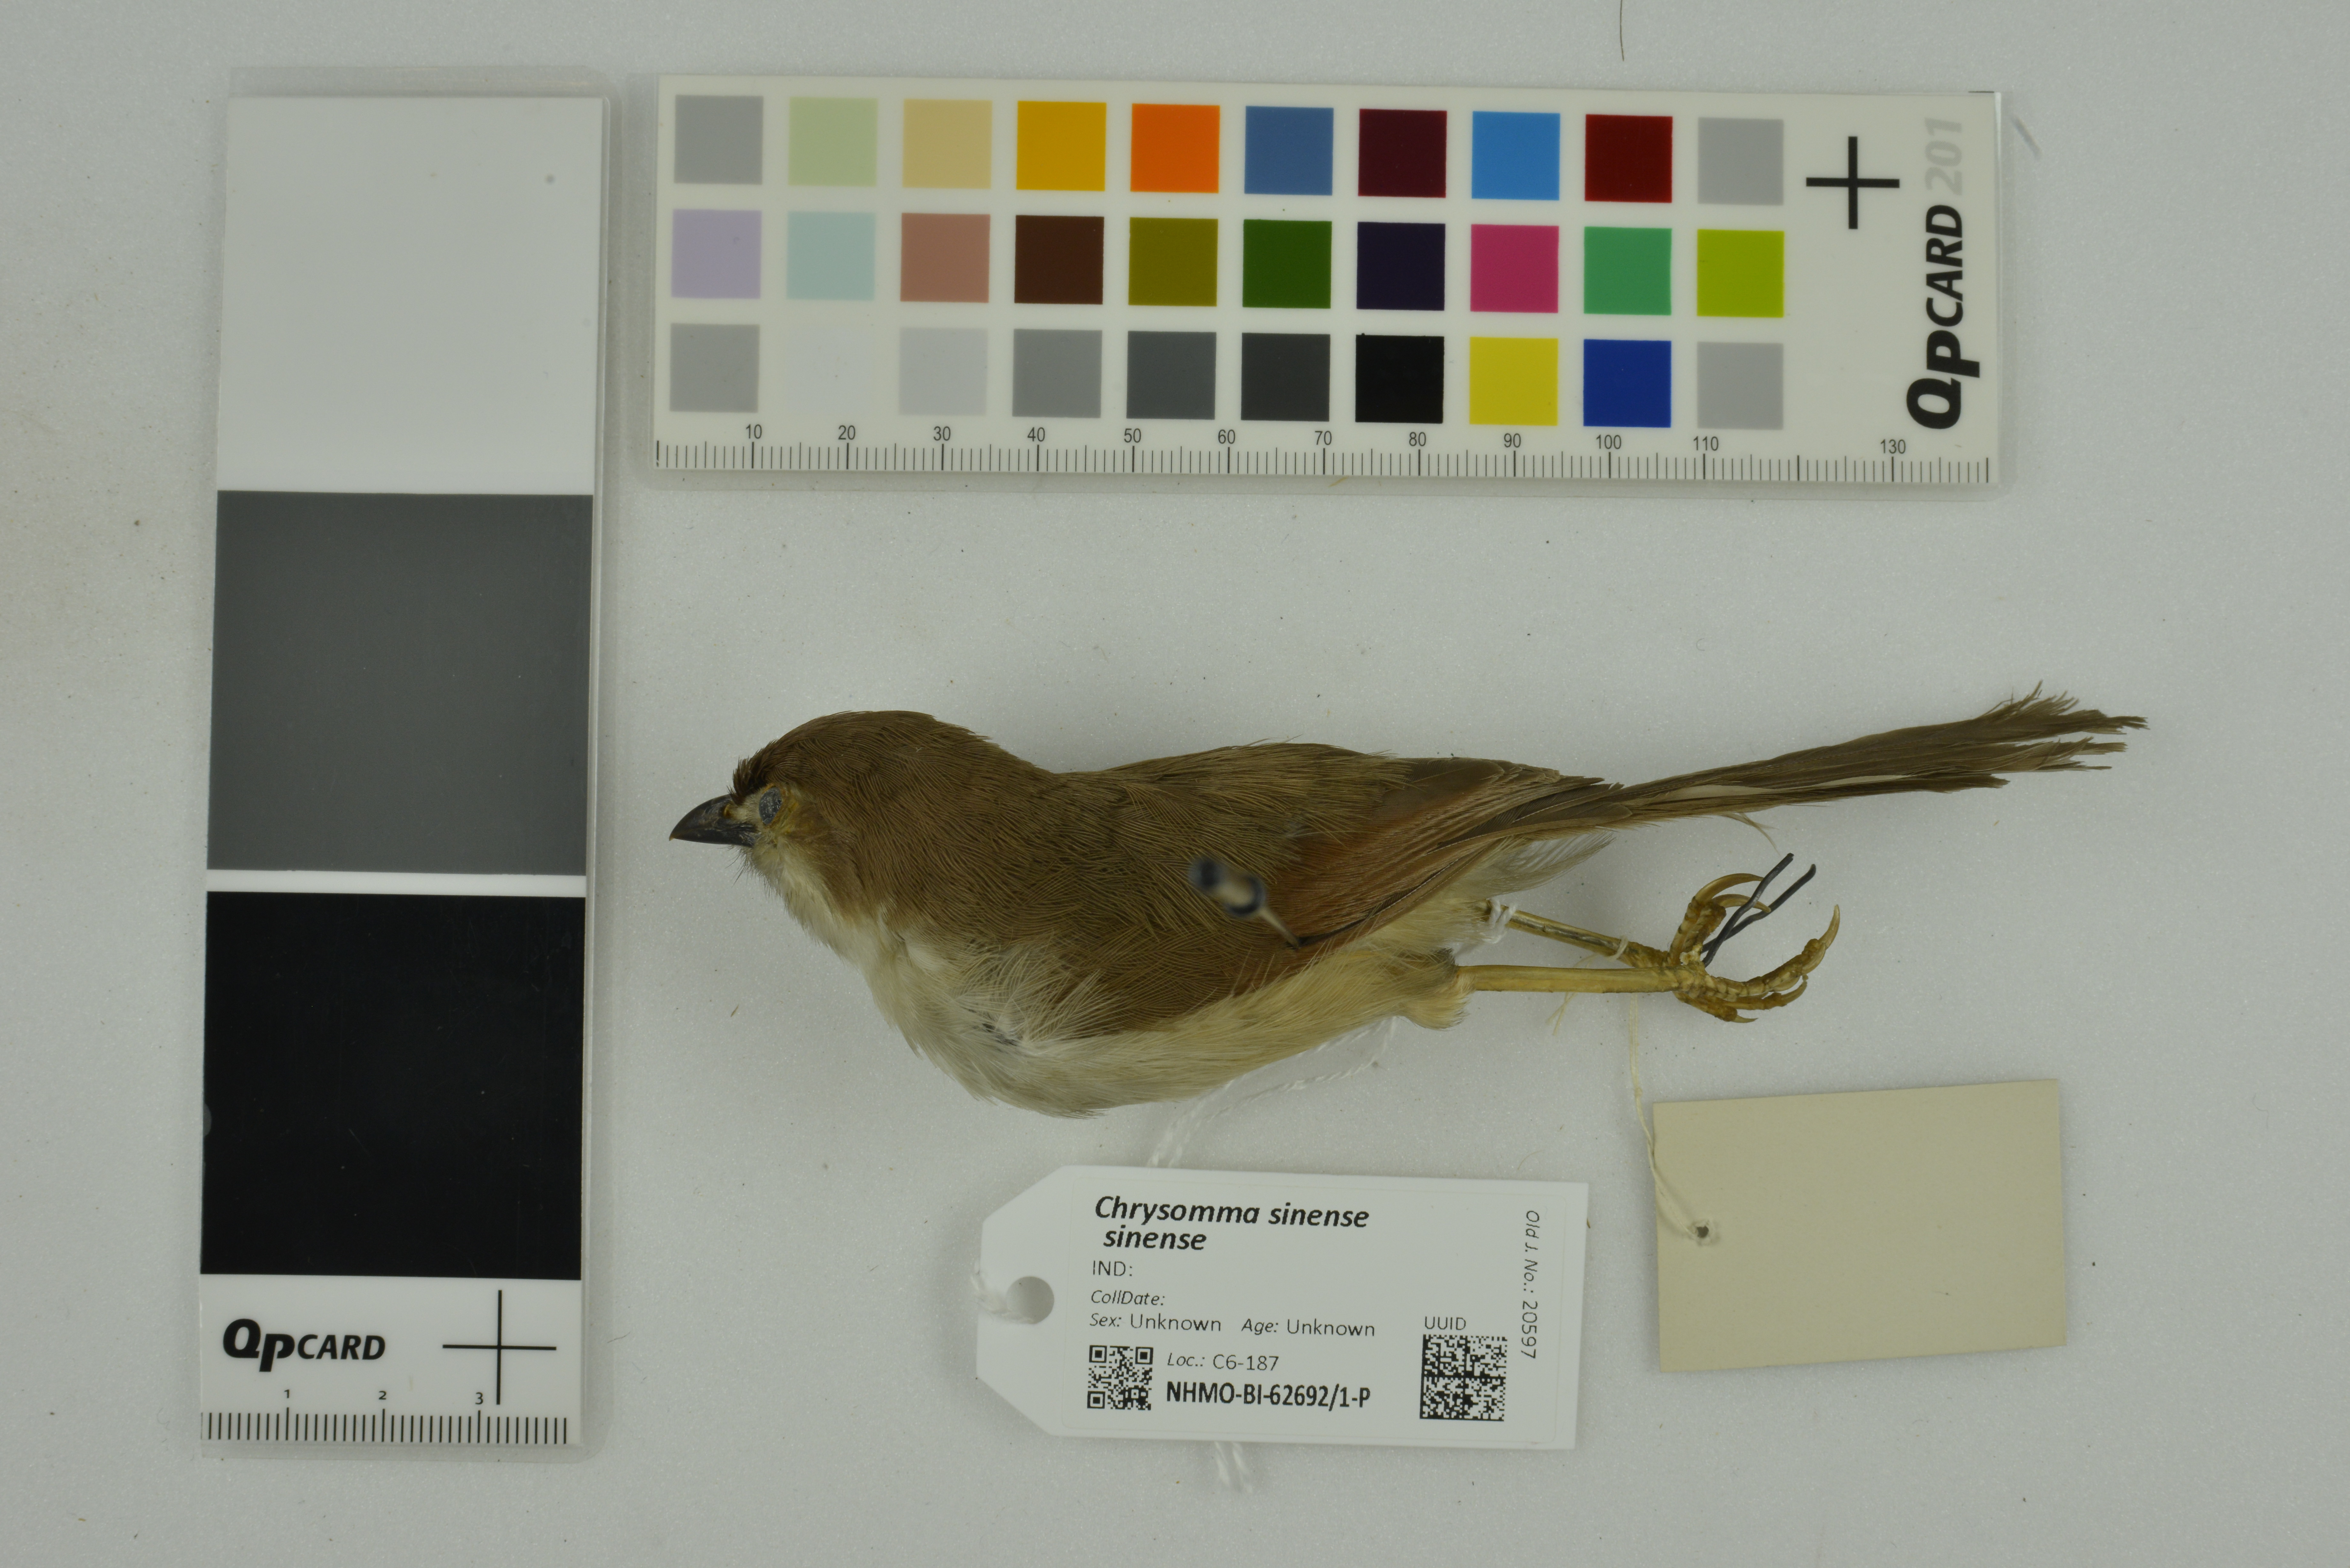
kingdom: Animalia
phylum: Chordata
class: Aves
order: Passeriformes
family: Sylviidae
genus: Chrysomma
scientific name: Chrysomma sinense
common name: Yellow-eyed babbler
